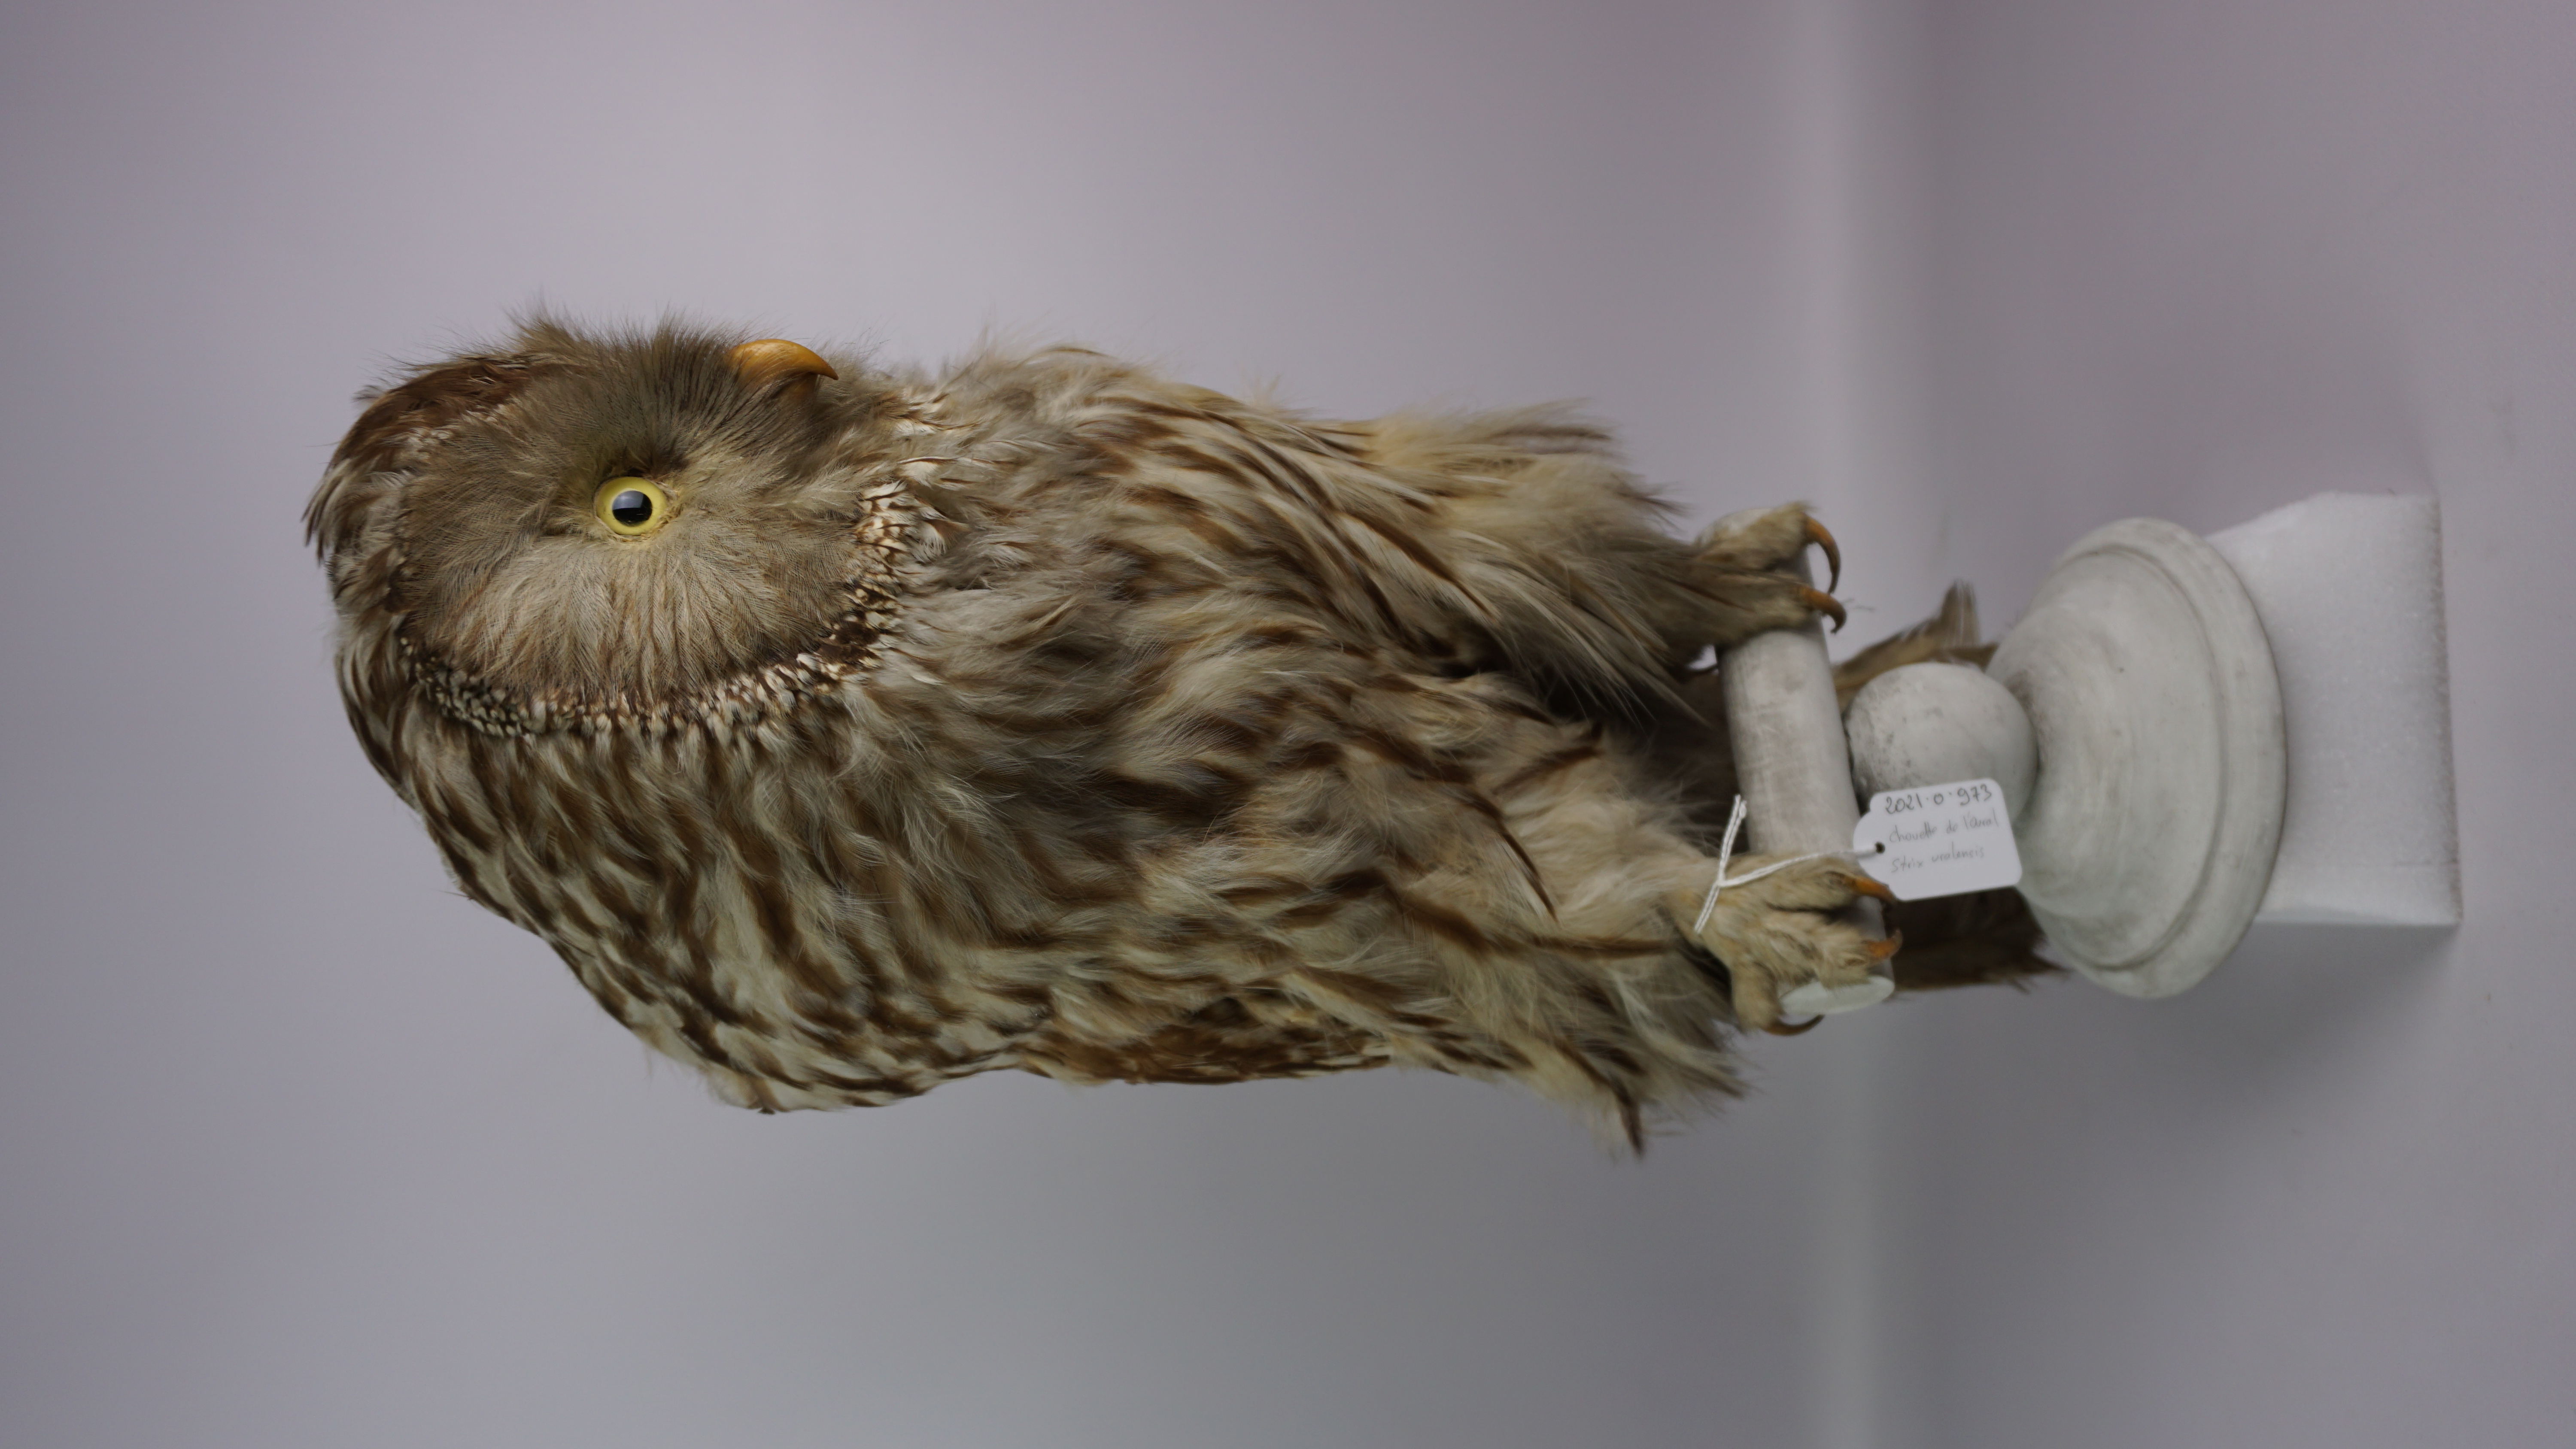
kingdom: Animalia
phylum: Chordata
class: Aves
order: Strigiformes
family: Strigidae
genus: Strix
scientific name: Strix uralensis
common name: Ural owl
